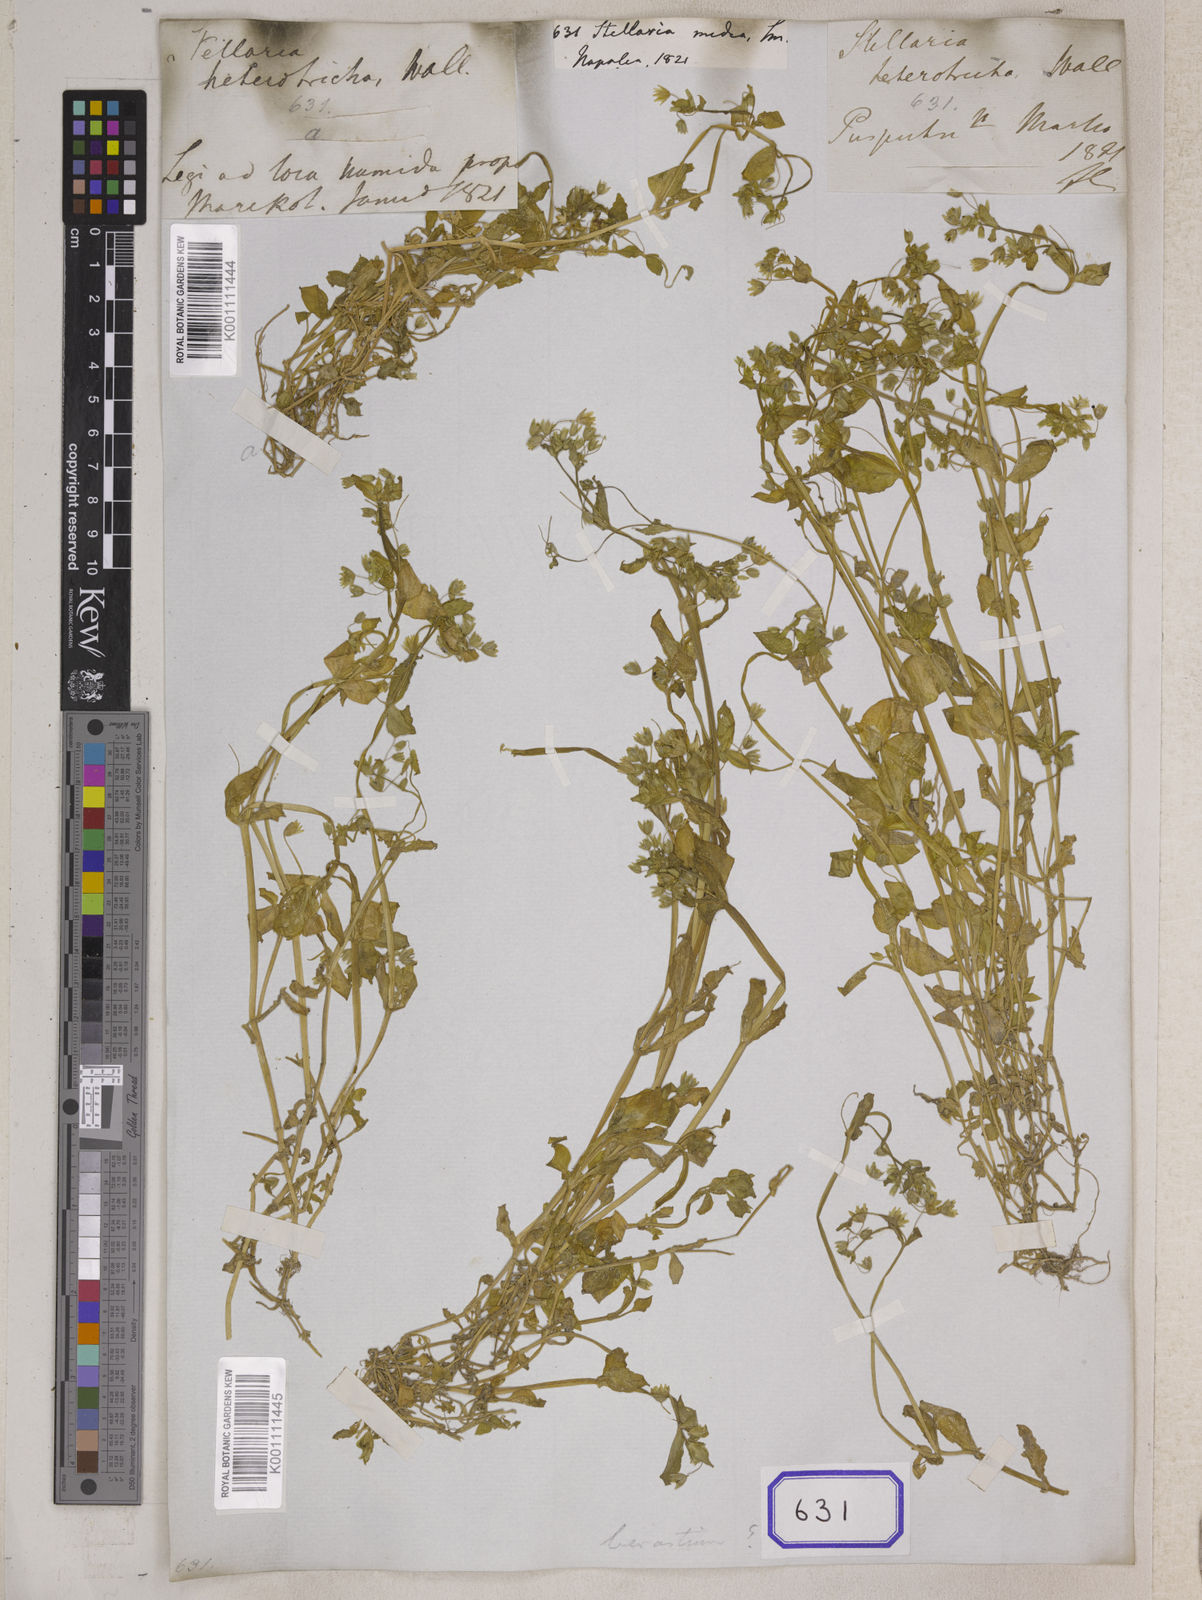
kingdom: Plantae
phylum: Tracheophyta
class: Magnoliopsida
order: Caryophyllales
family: Caryophyllaceae
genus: Stellaria
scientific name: Stellaria
